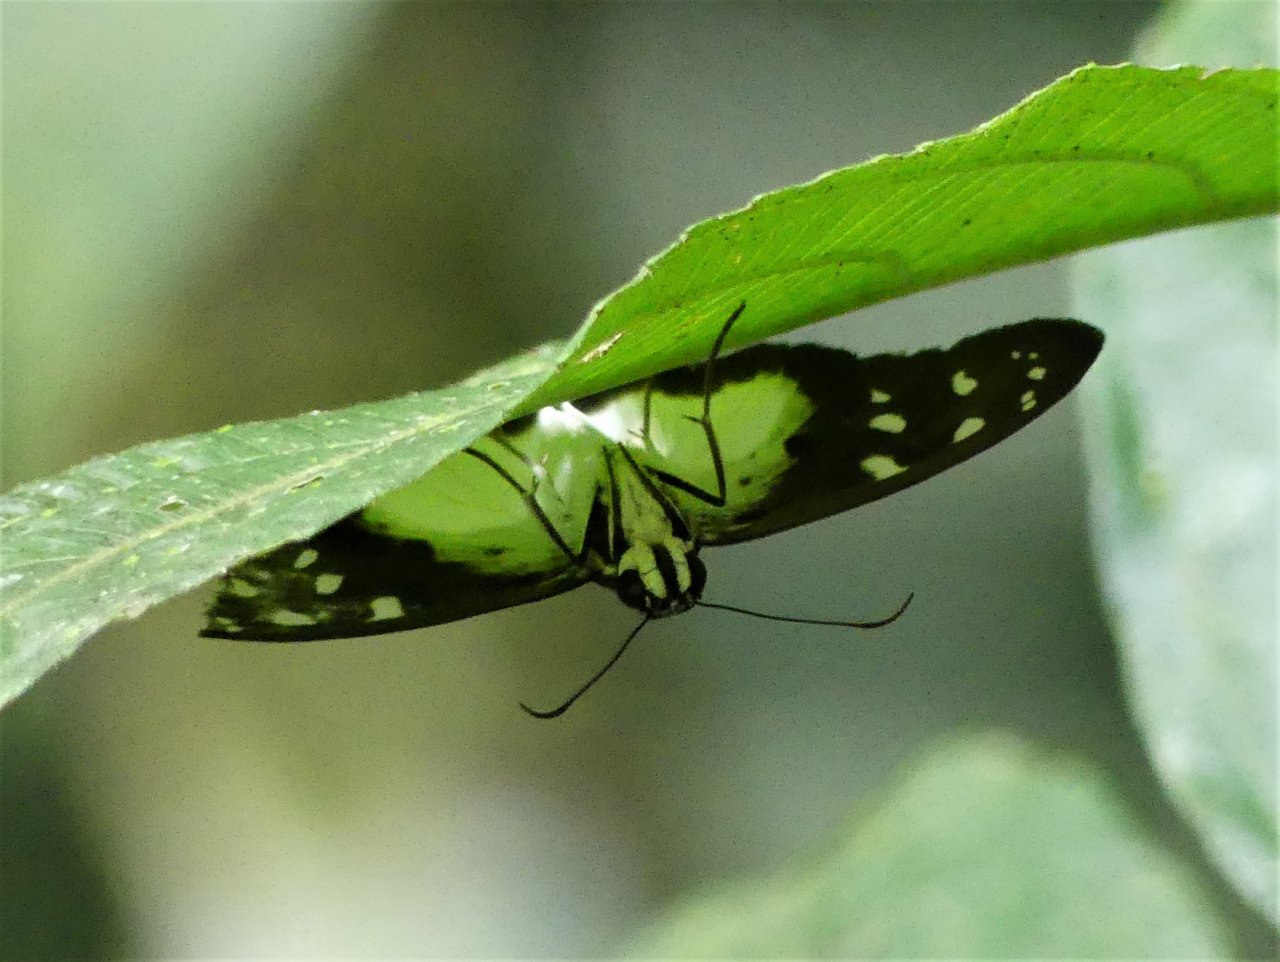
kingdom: Animalia
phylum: Arthropoda
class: Insecta
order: Lepidoptera
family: Hesperiidae
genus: Hyalothyrus
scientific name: Hyalothyrus neleus
